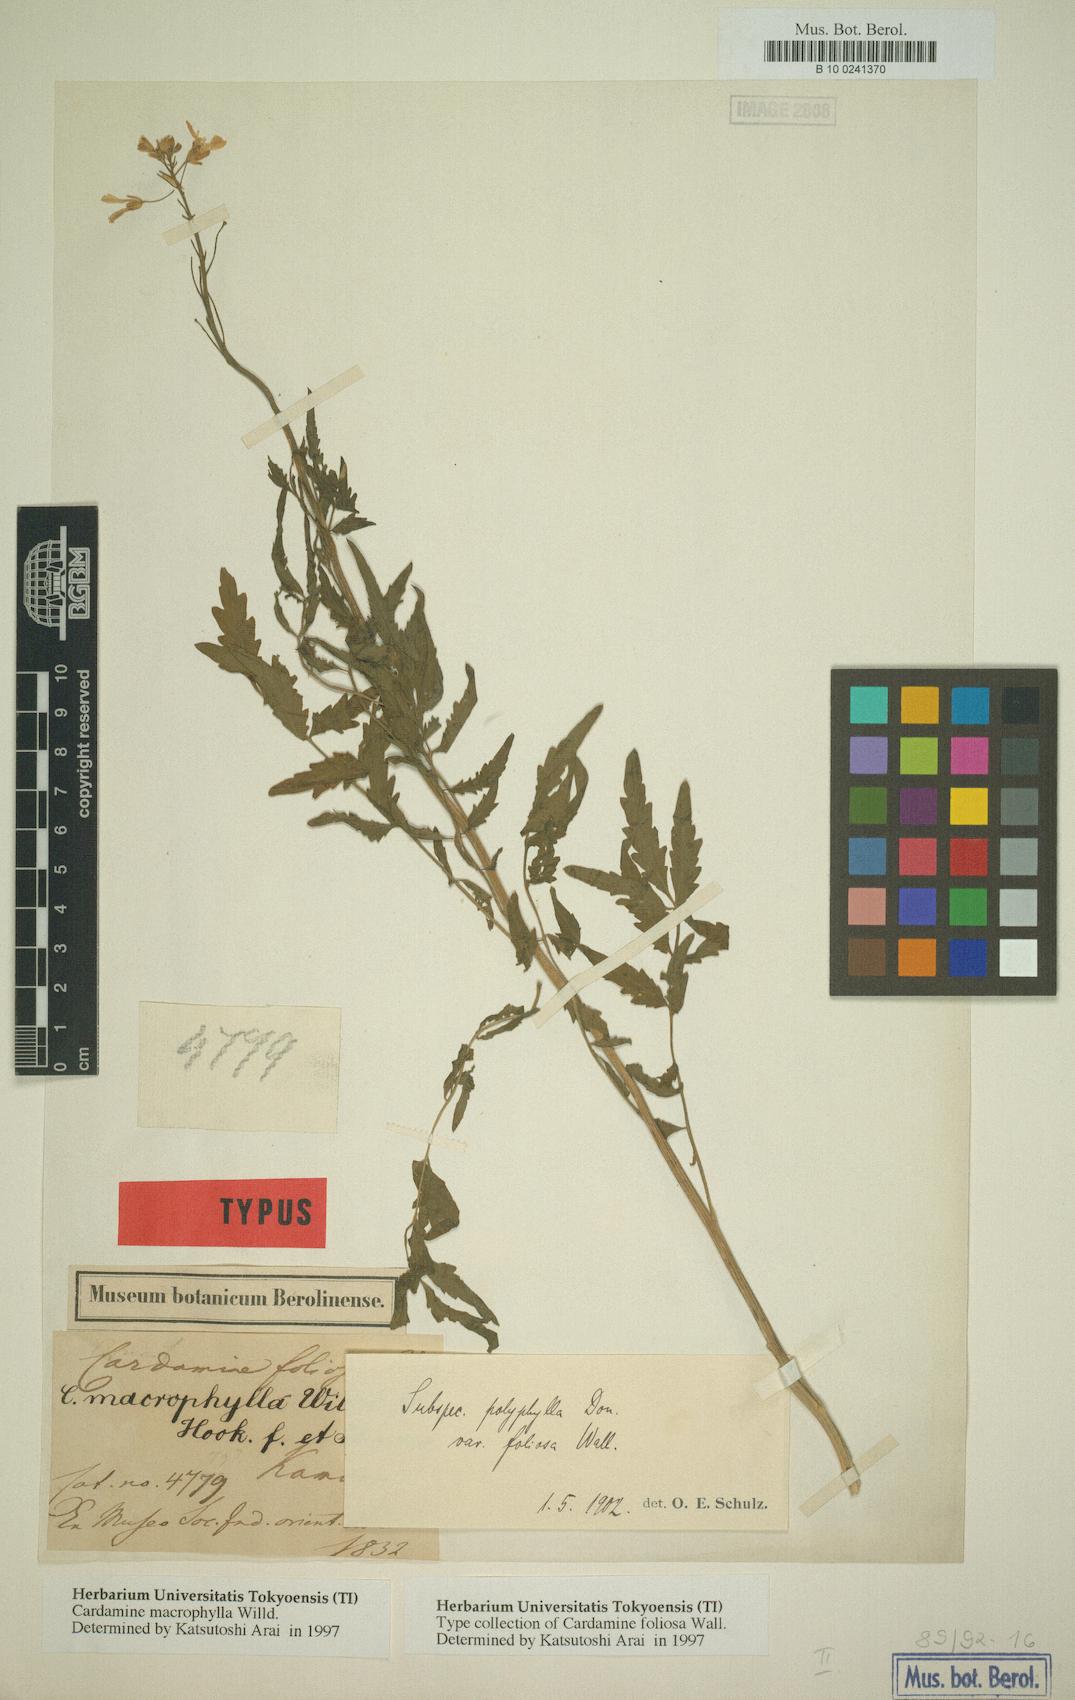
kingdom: Plantae
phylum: Tracheophyta
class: Magnoliopsida
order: Brassicales
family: Brassicaceae
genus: Cardamine
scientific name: Cardamine macrophylla
